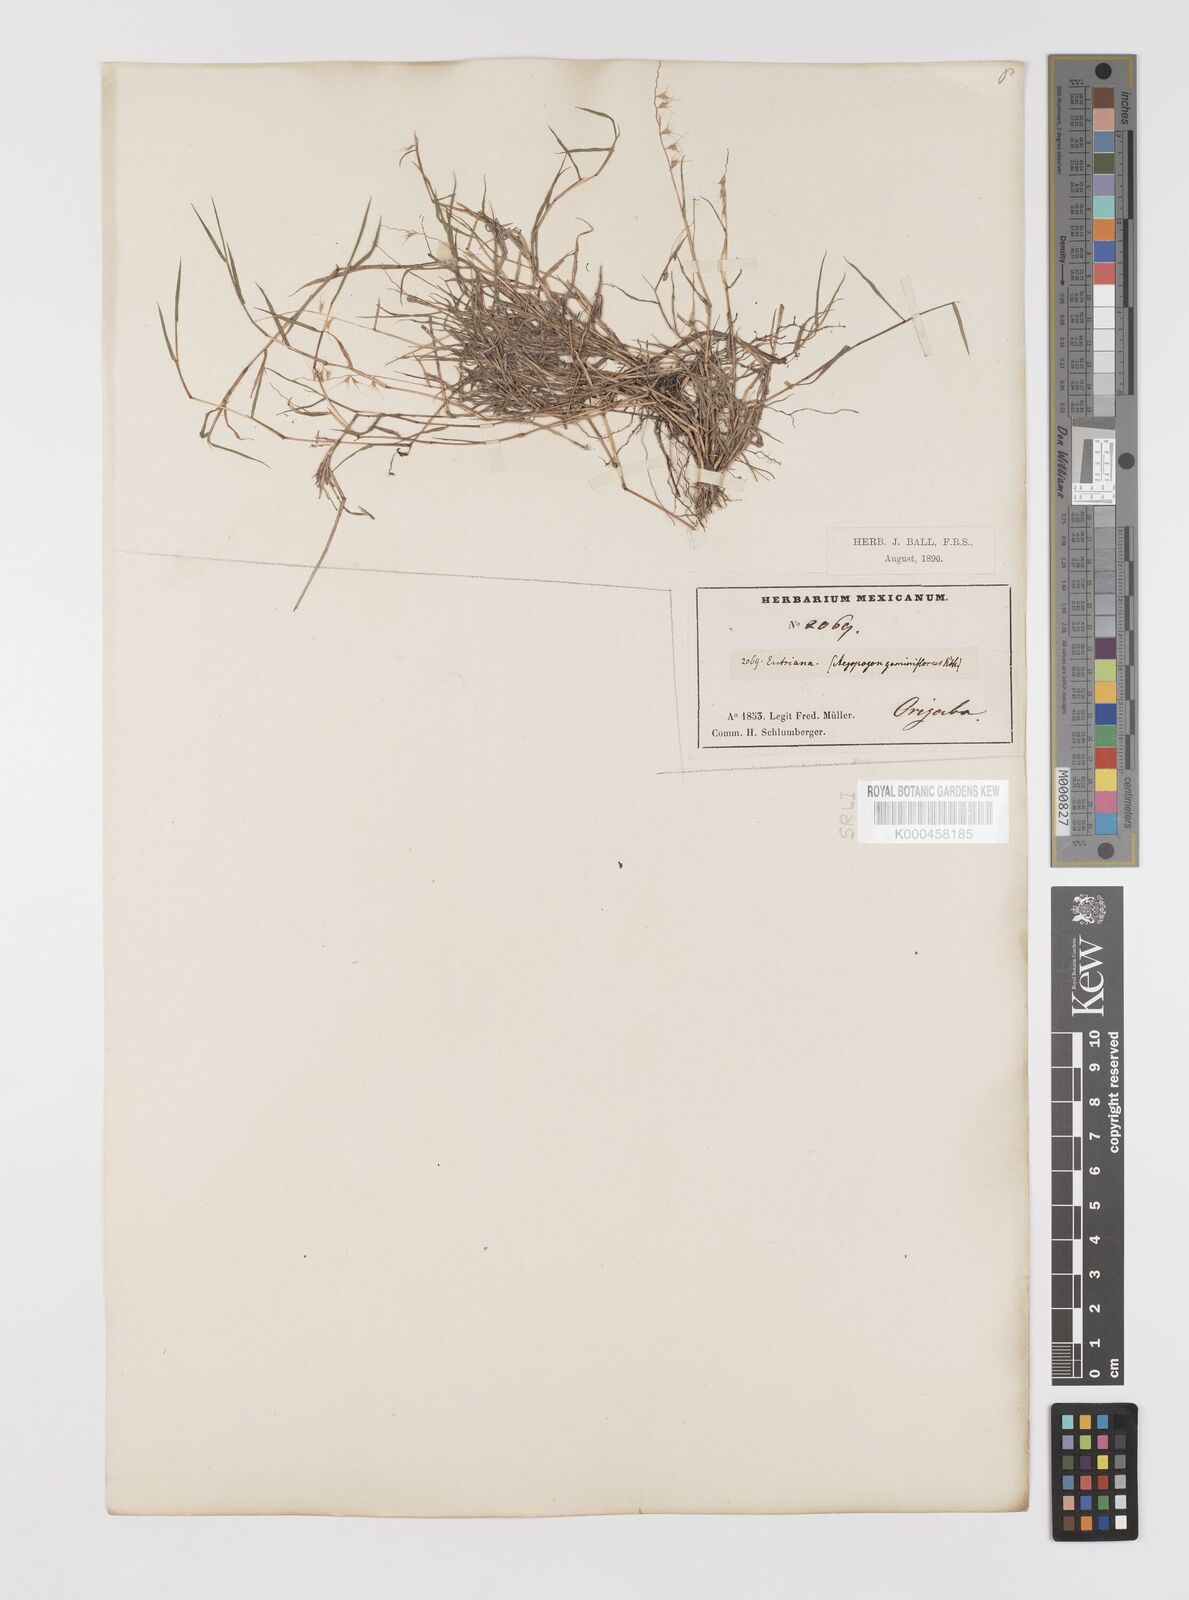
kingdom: Plantae
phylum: Tracheophyta
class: Liliopsida
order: Poales
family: Poaceae
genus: Muhlenbergia
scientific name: Muhlenbergia
